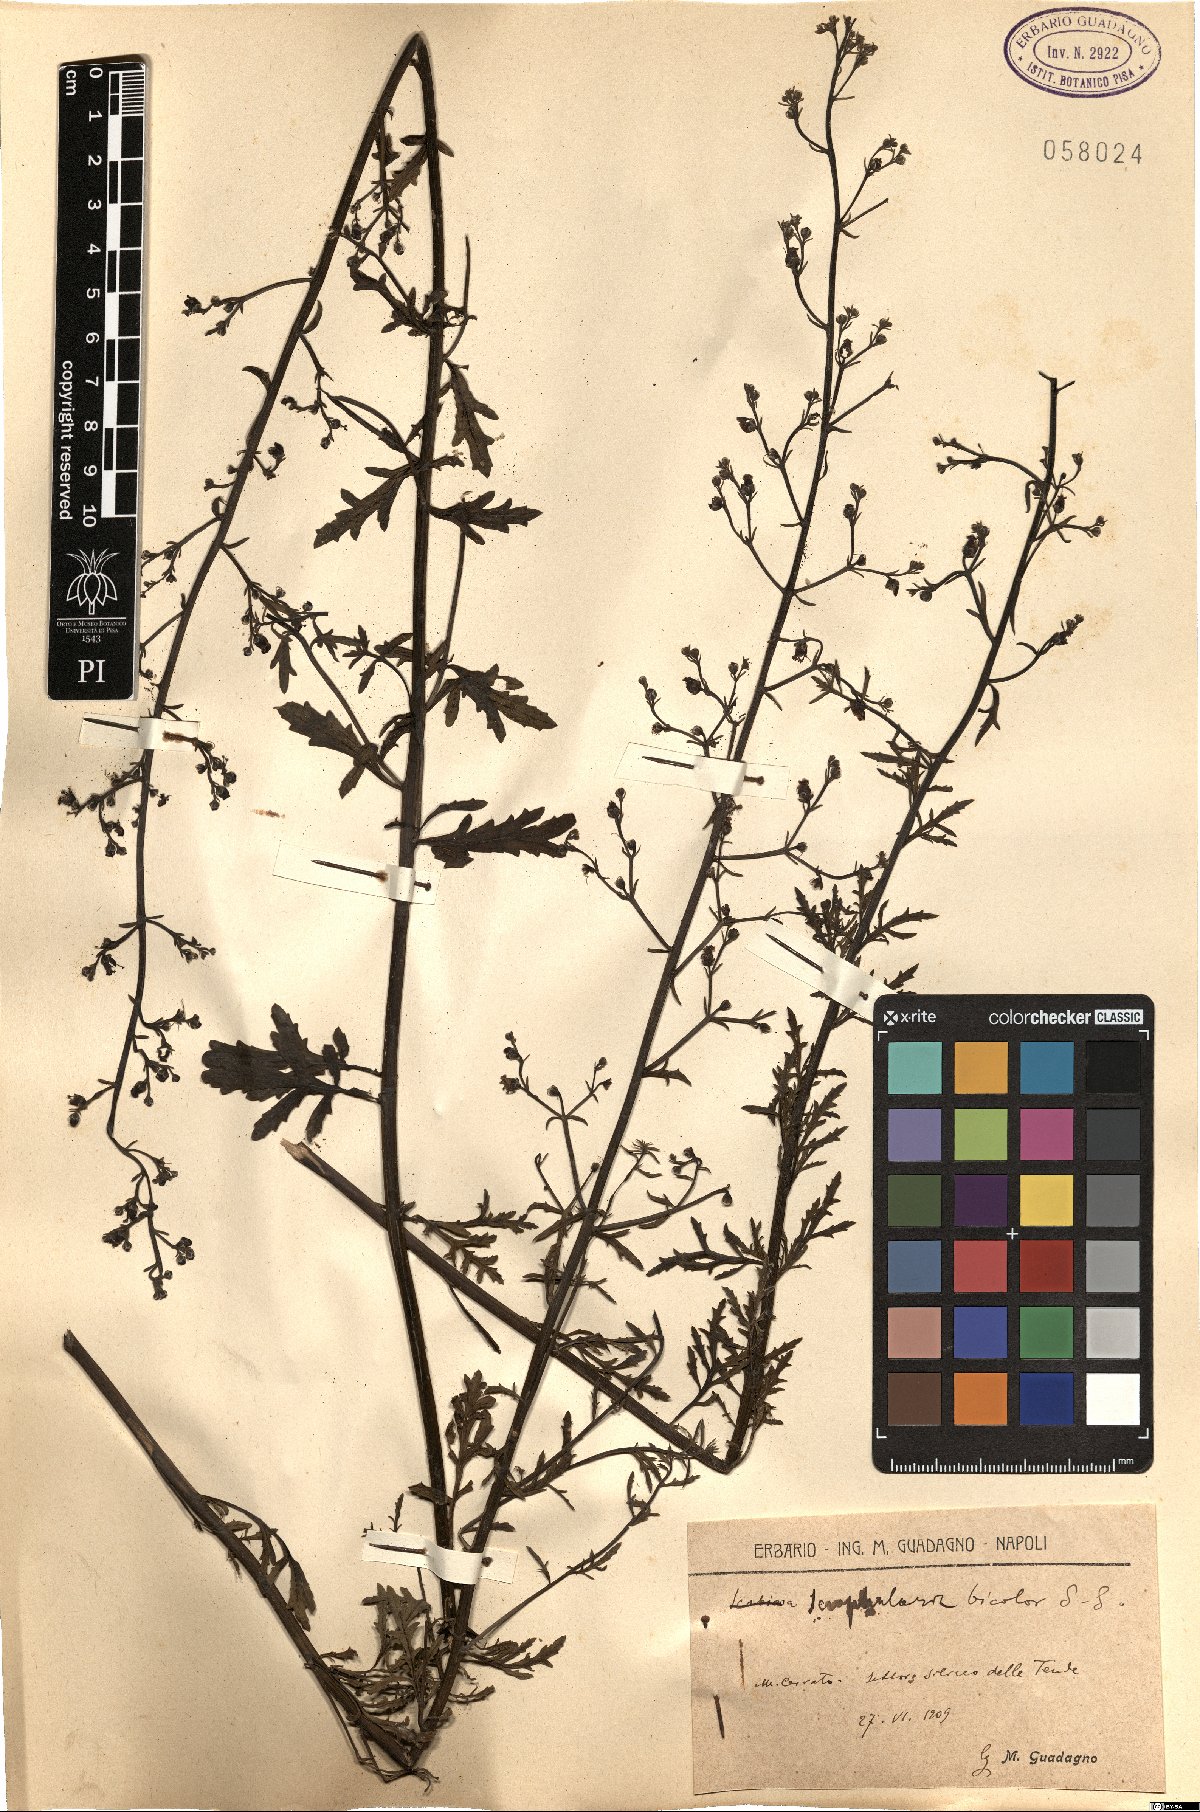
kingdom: Plantae
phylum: Tracheophyta
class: Magnoliopsida
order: Lamiales
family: Scrophulariaceae
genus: Scrophularia
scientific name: Scrophularia canina
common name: French figwort
